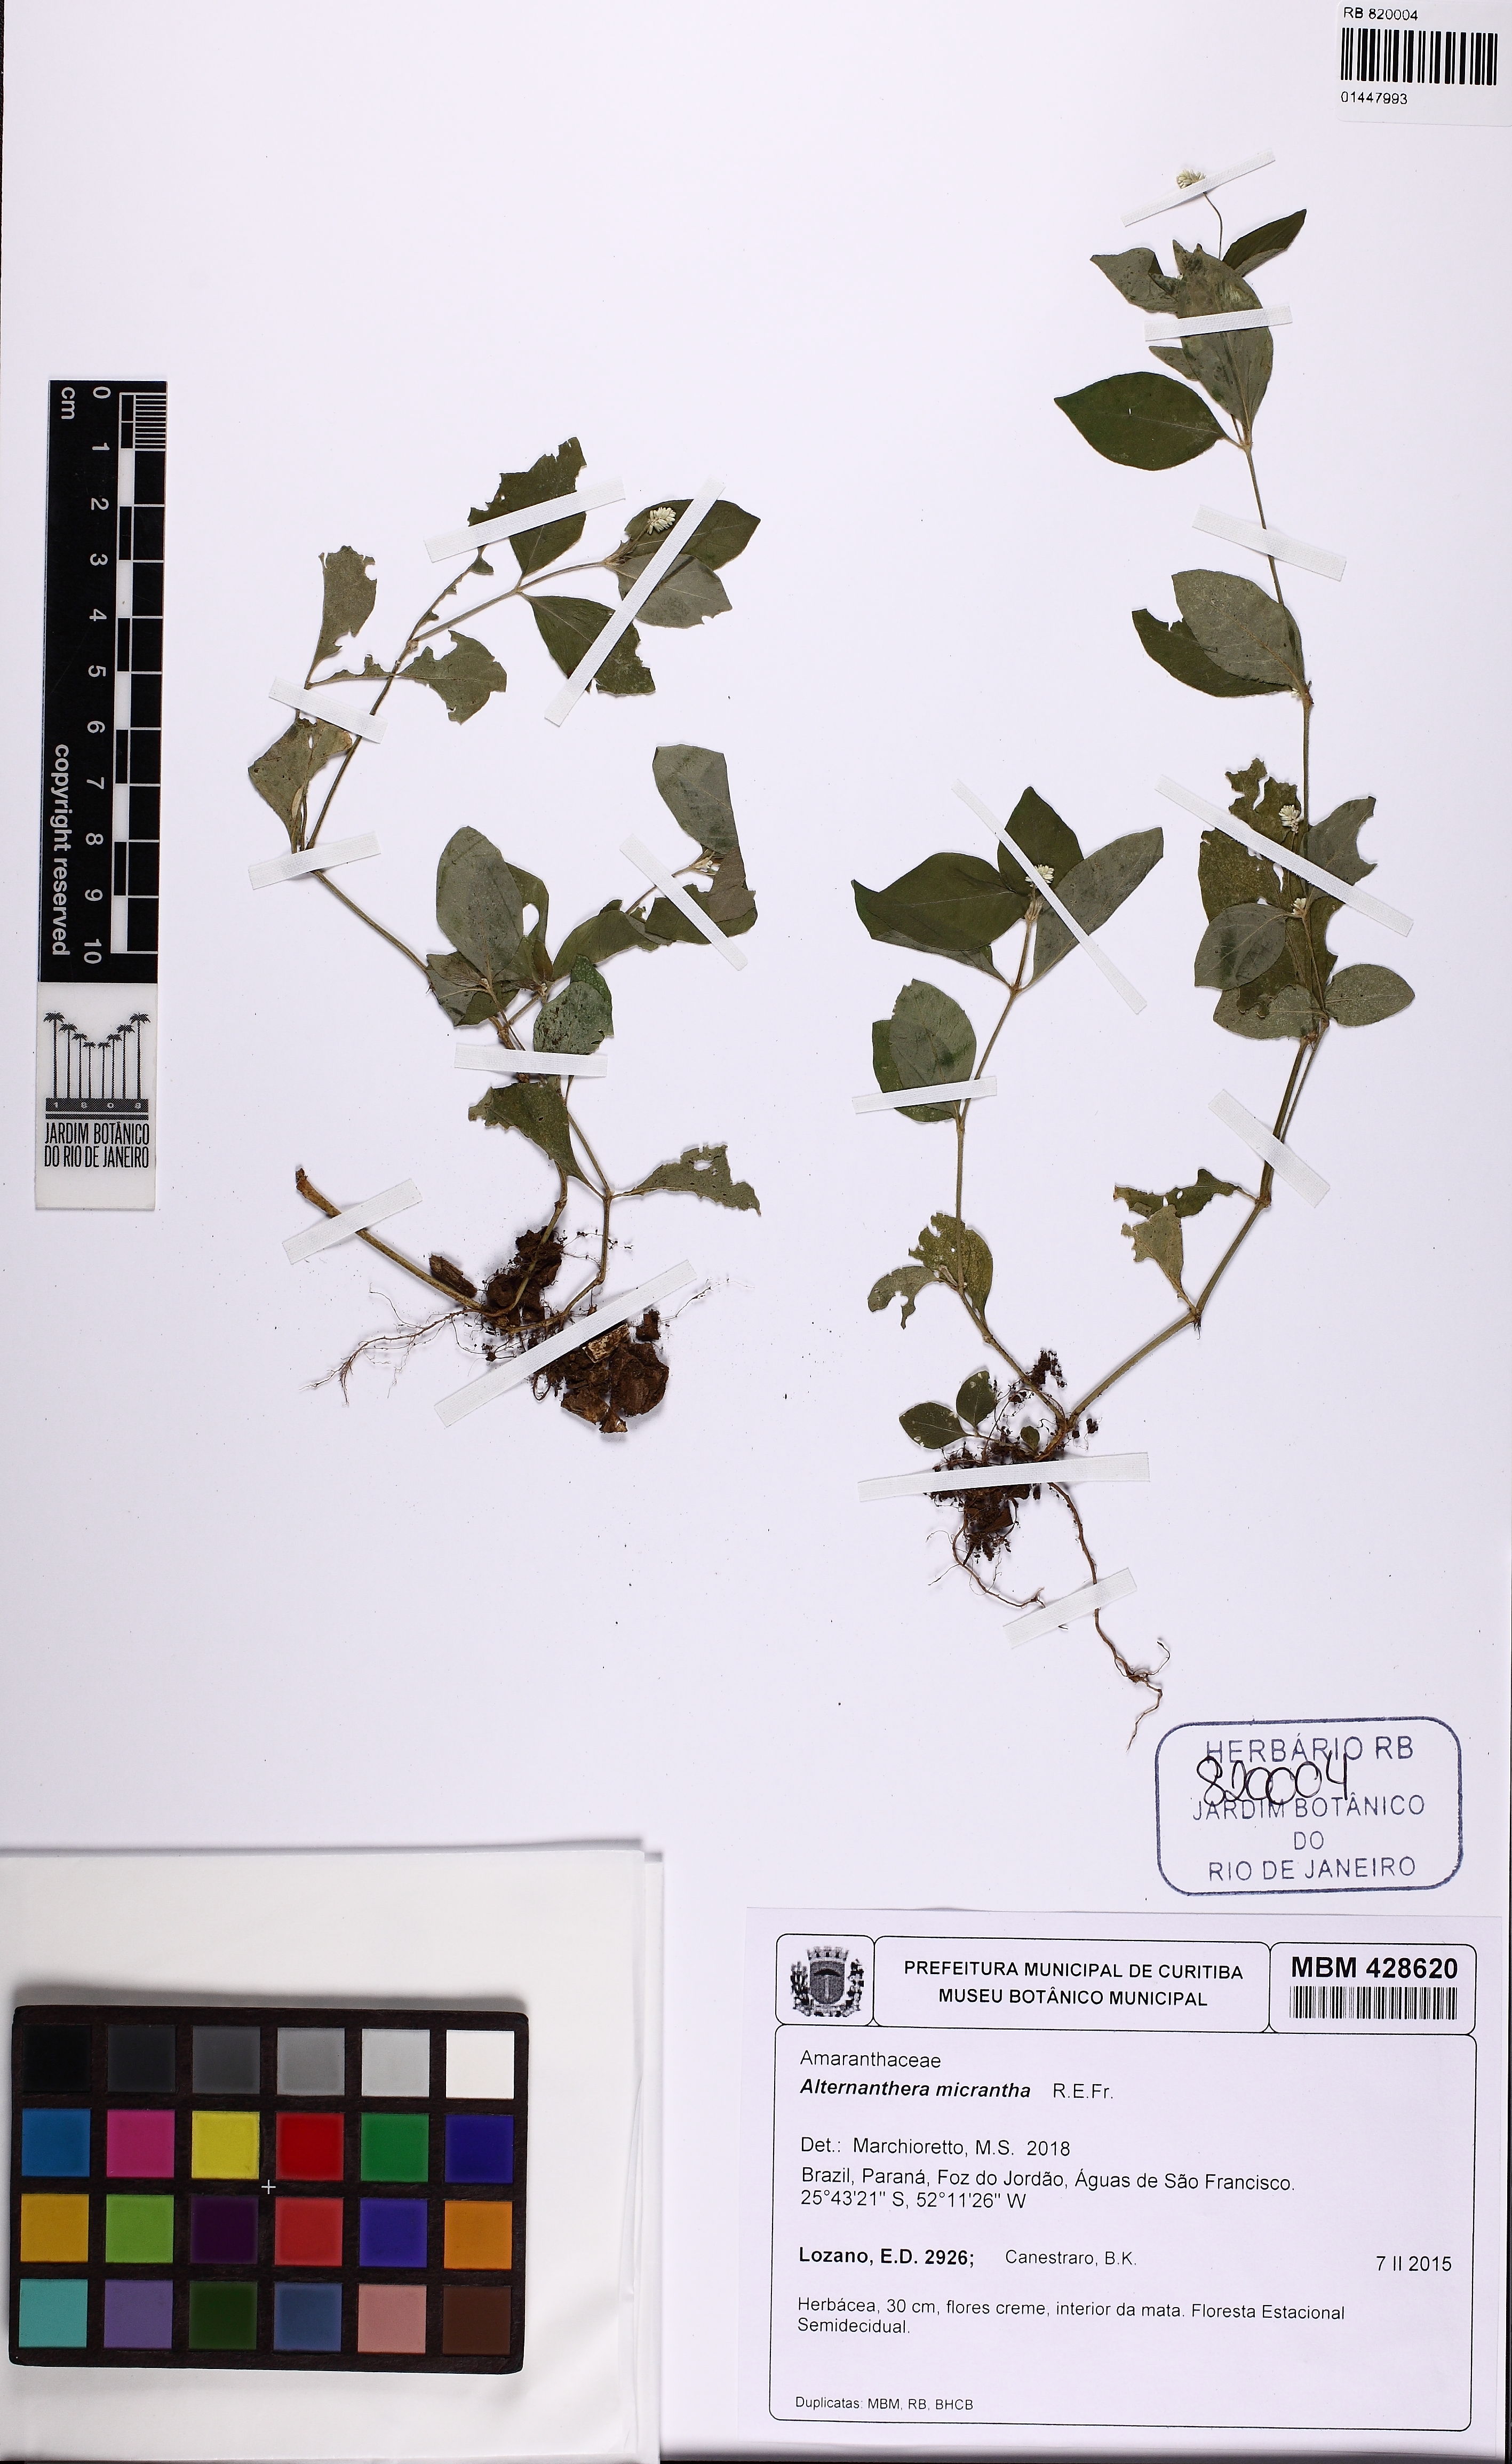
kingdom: Plantae
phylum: Tracheophyta
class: Magnoliopsida
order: Caryophyllales
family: Amaranthaceae
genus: Alternanthera
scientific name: Alternanthera micrantha
